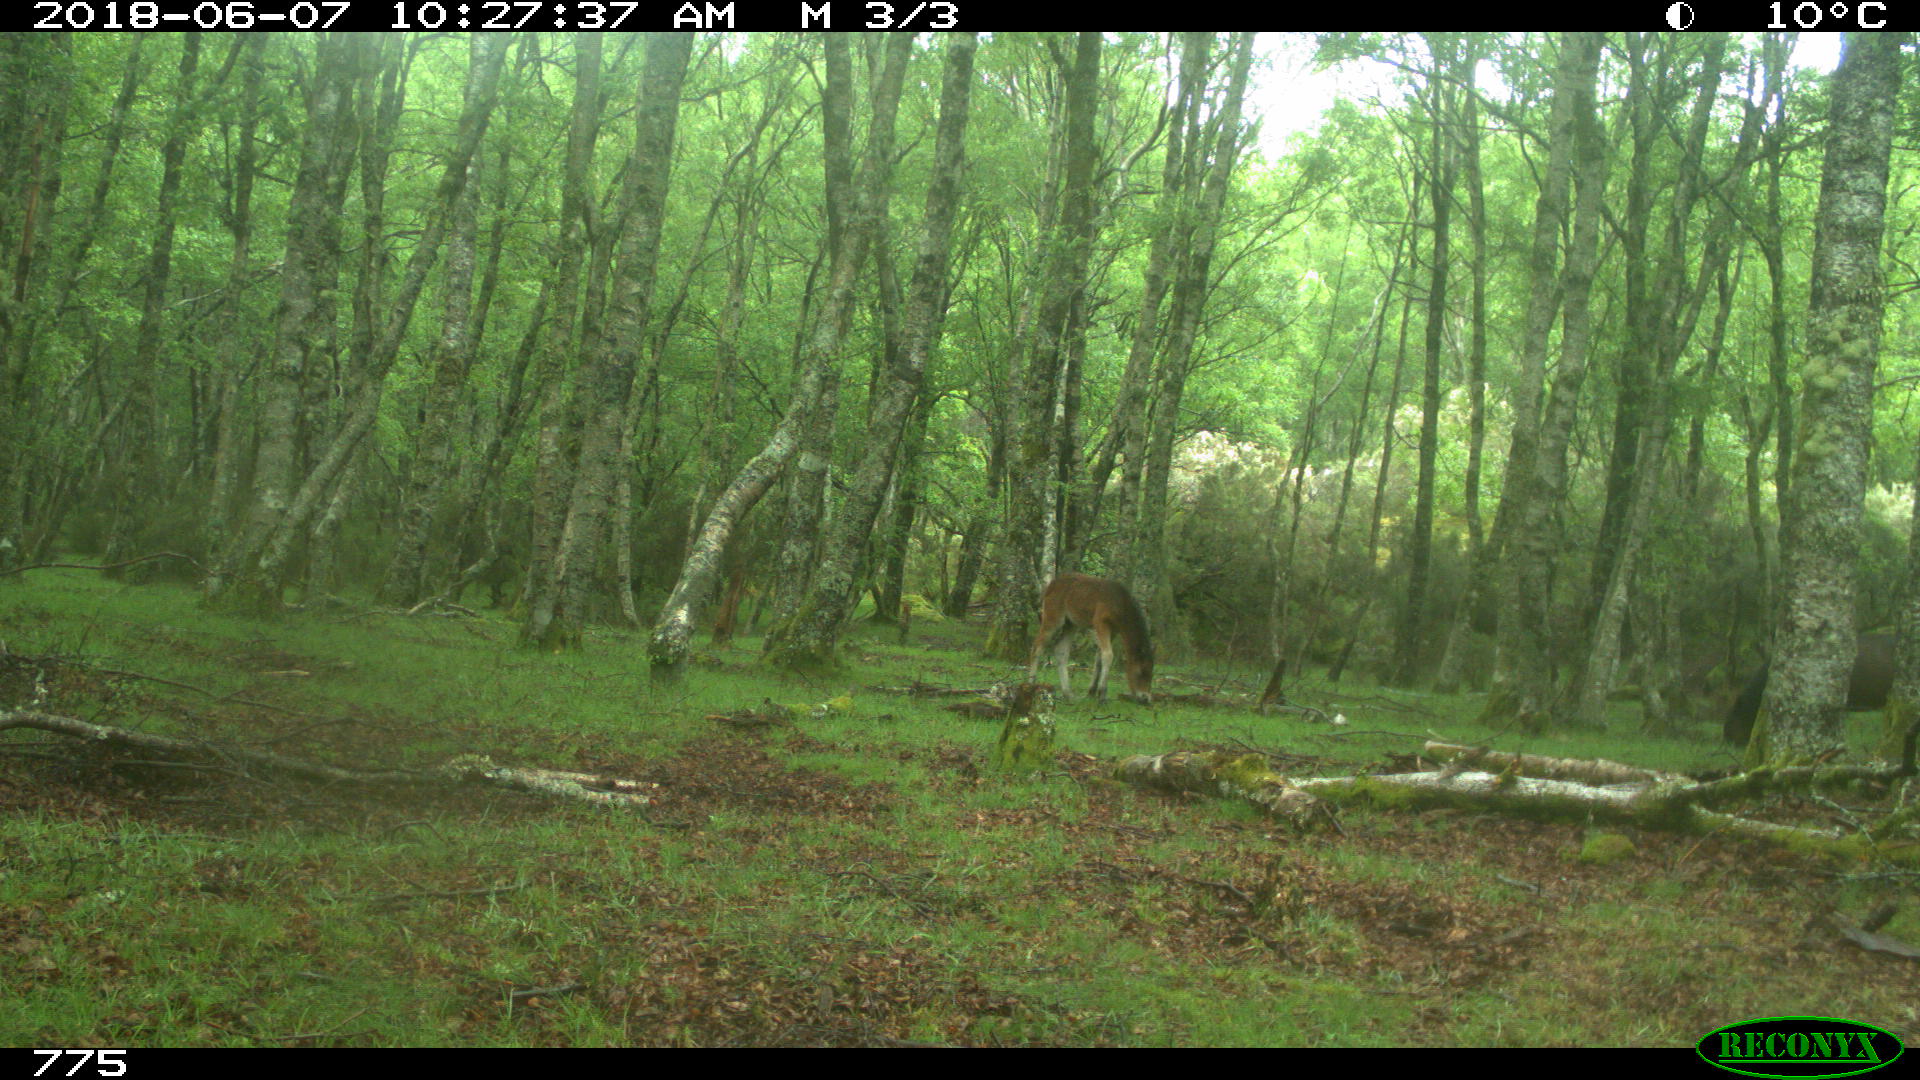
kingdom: Animalia
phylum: Chordata
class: Mammalia
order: Perissodactyla
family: Equidae
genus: Equus
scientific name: Equus caballus
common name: Horse
